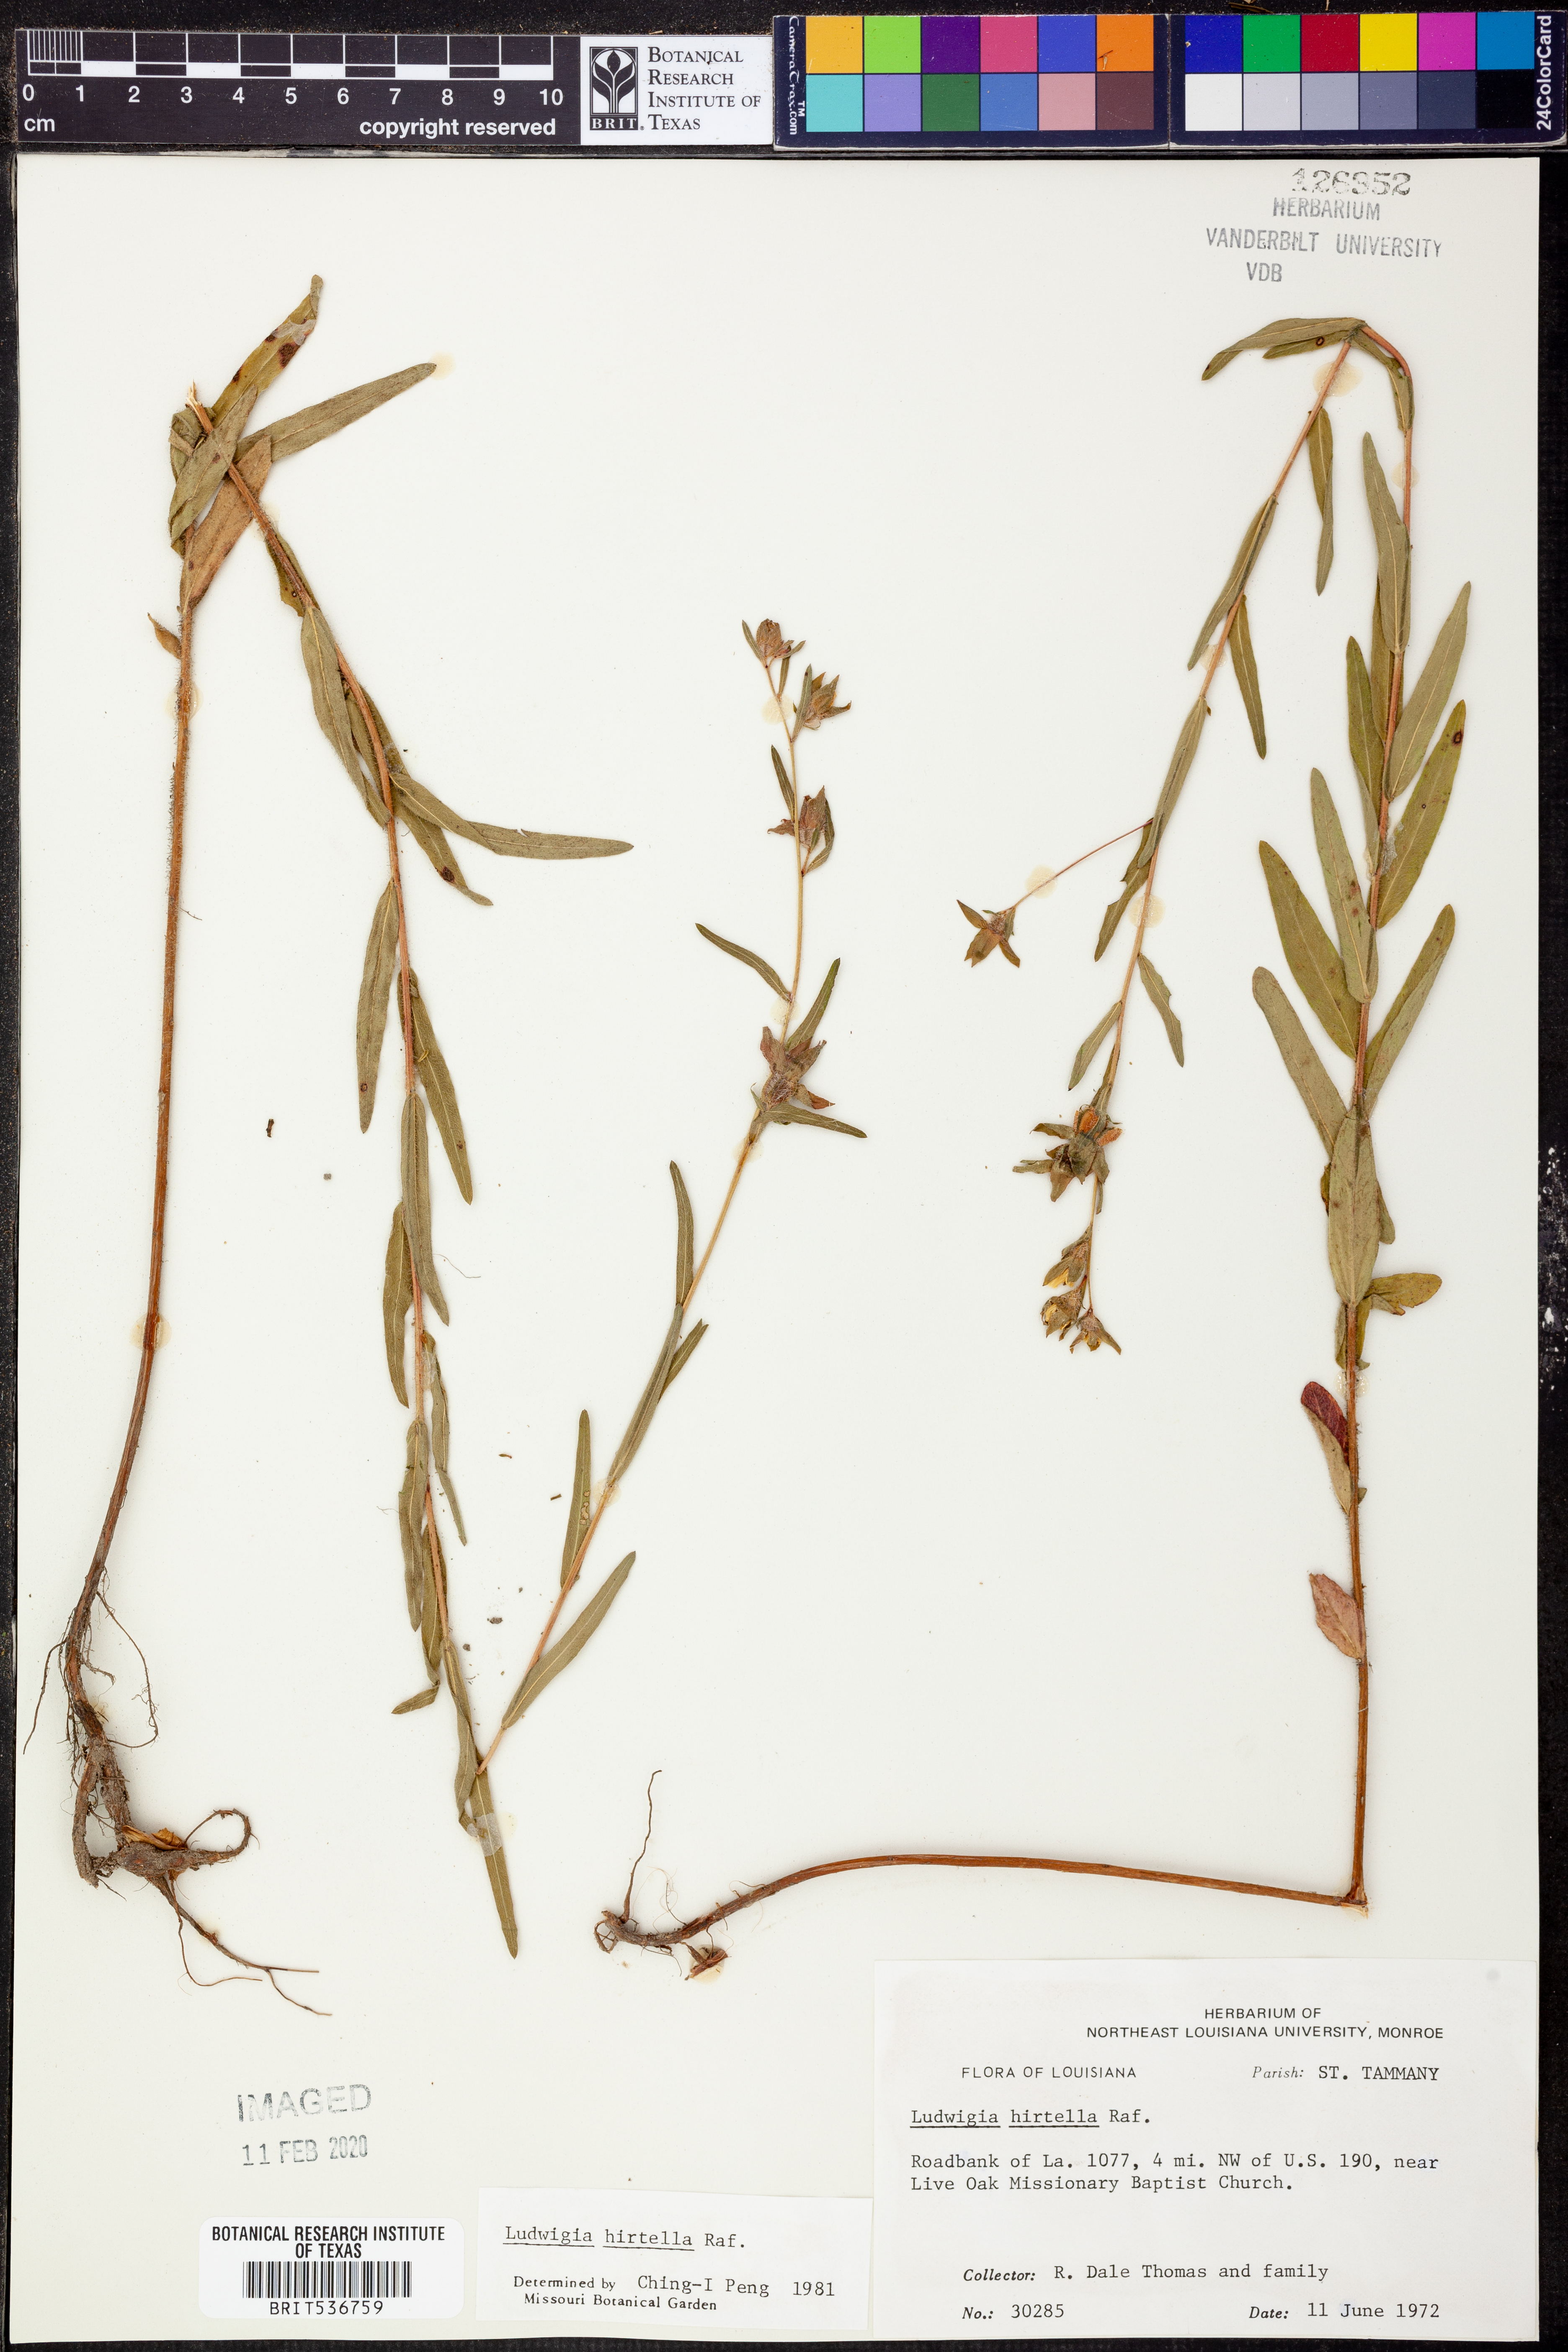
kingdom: Plantae
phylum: Tracheophyta
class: Magnoliopsida
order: Myrtales
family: Onagraceae
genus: Ludwigia
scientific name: Ludwigia hirtella
